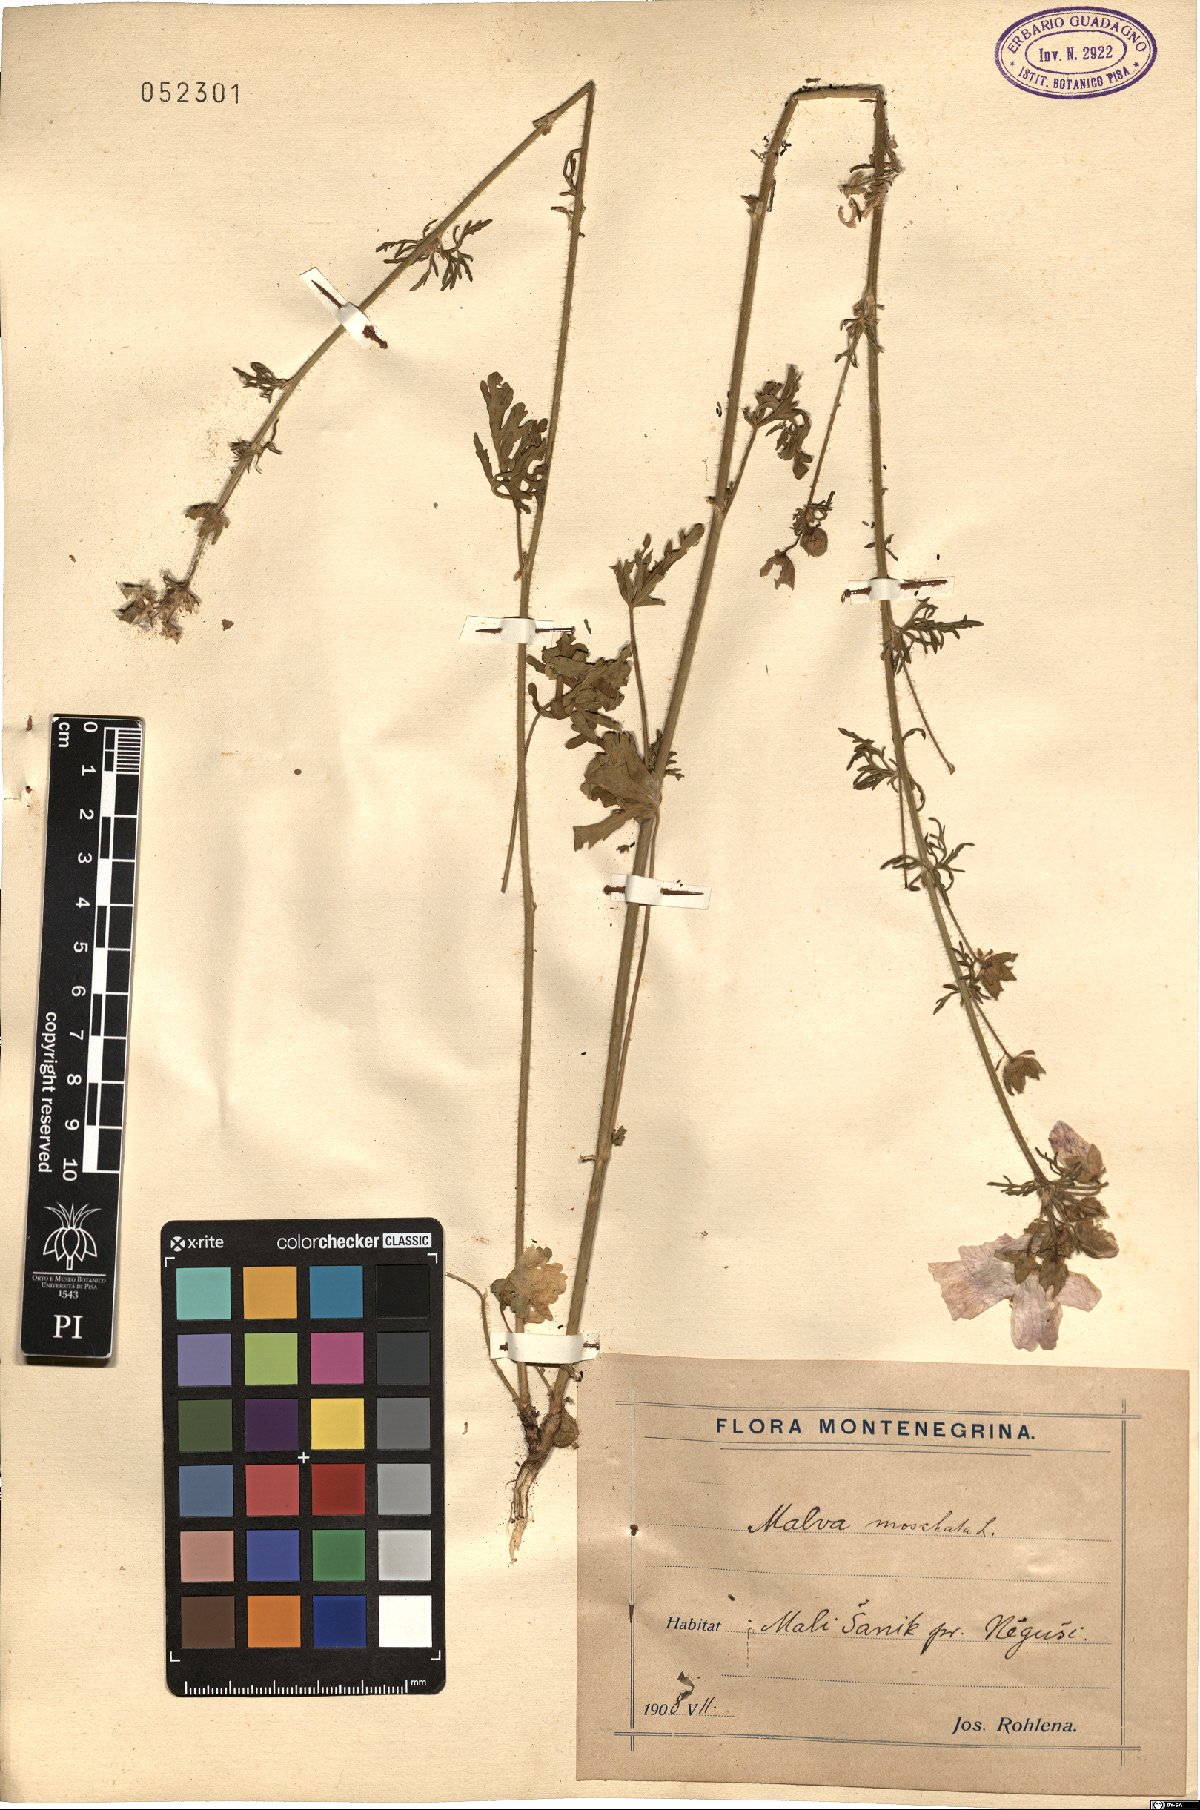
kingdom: Plantae
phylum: Tracheophyta
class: Magnoliopsida
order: Malvales
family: Malvaceae
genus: Malva
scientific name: Malva moschata
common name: Musk mallow
